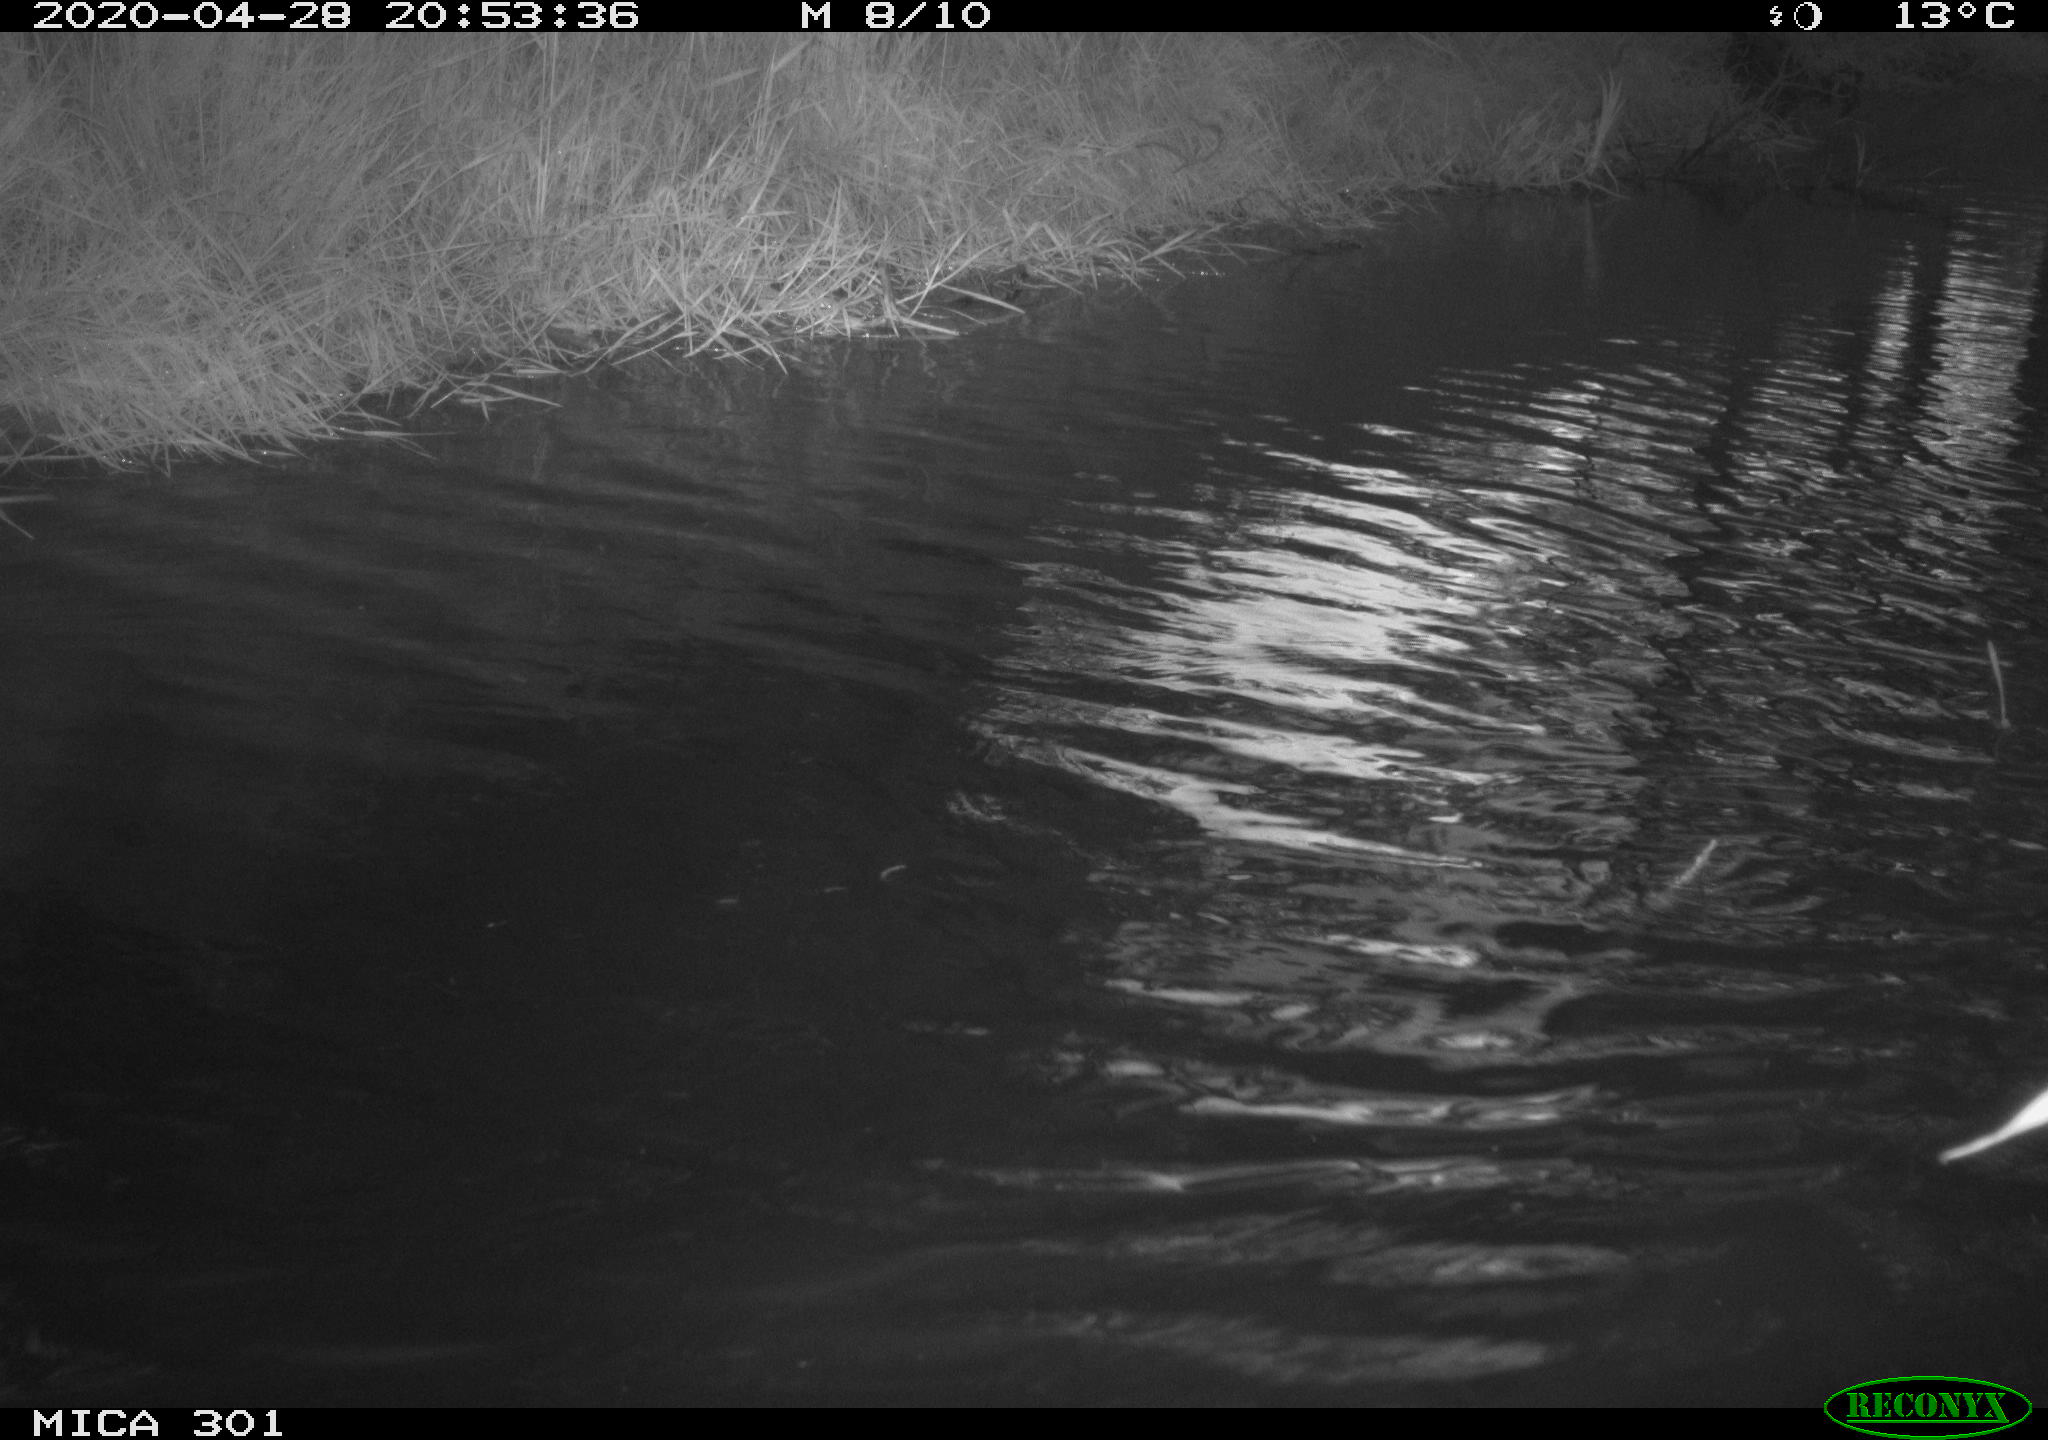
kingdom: Animalia
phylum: Chordata
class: Aves
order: Anseriformes
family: Anatidae
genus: Mareca
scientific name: Mareca strepera
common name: Gadwall
